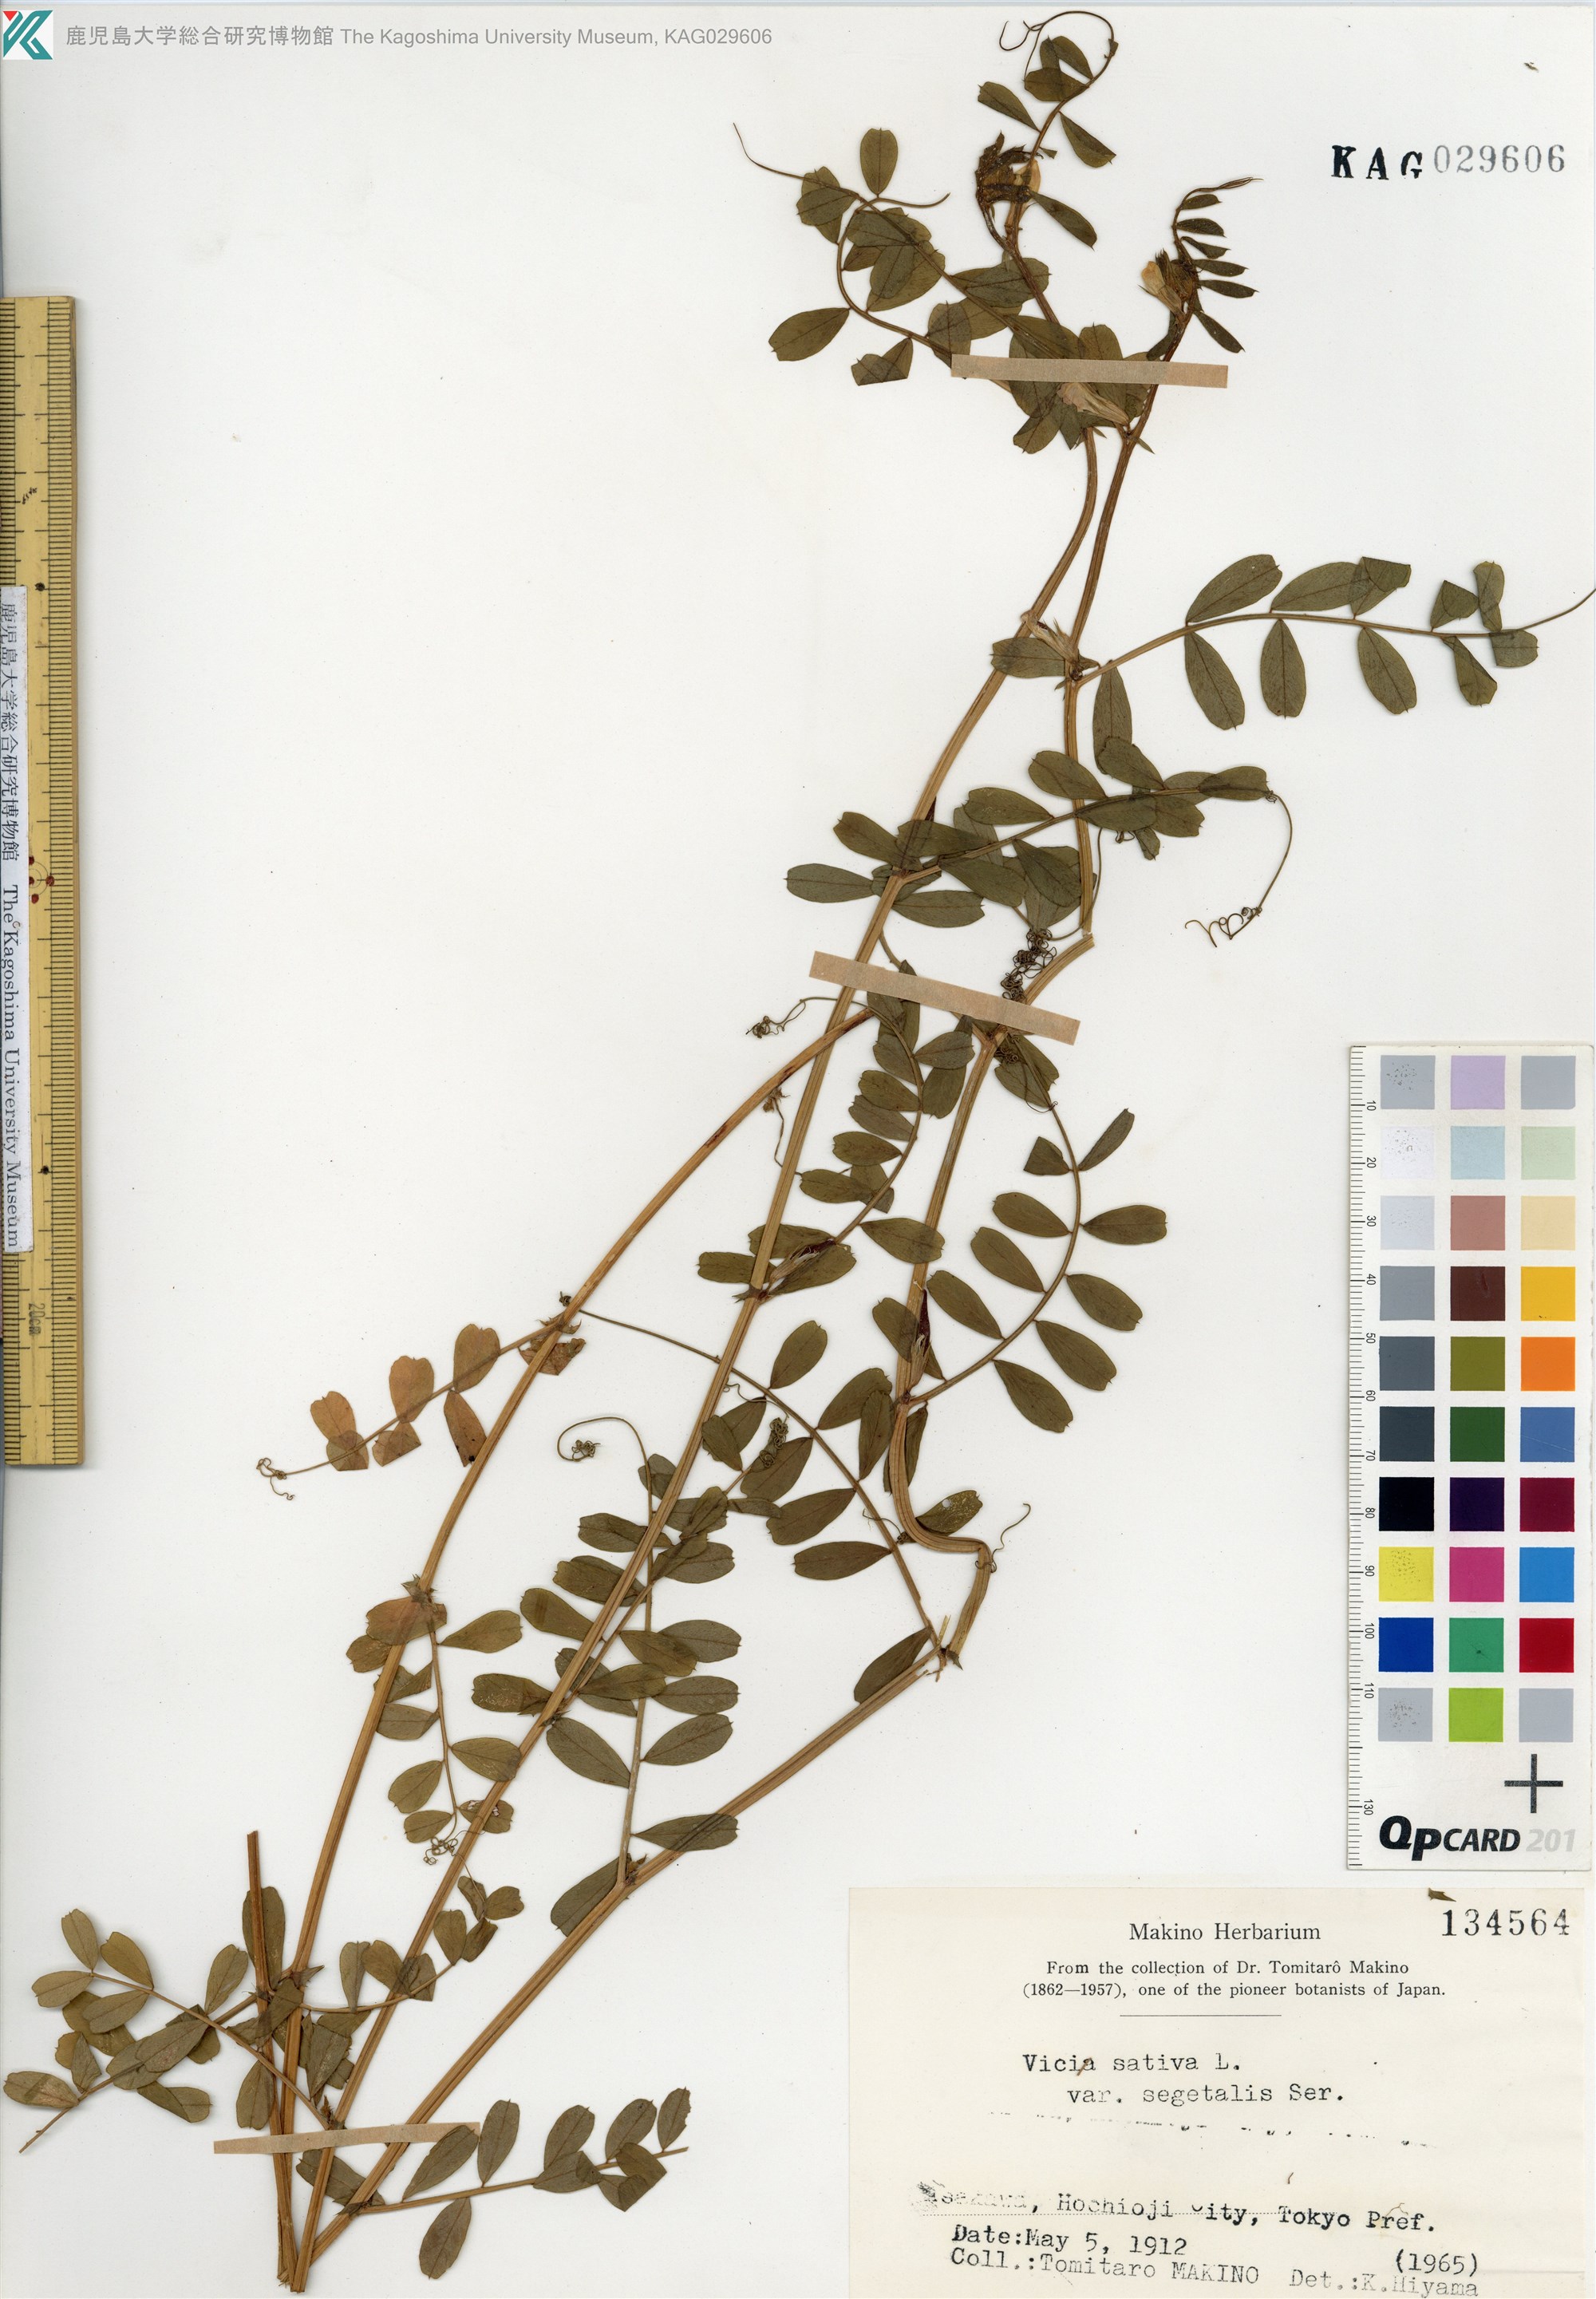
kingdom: Plantae
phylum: Tracheophyta
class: Magnoliopsida
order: Fabales
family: Fabaceae
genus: Vicia
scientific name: Vicia sativa
